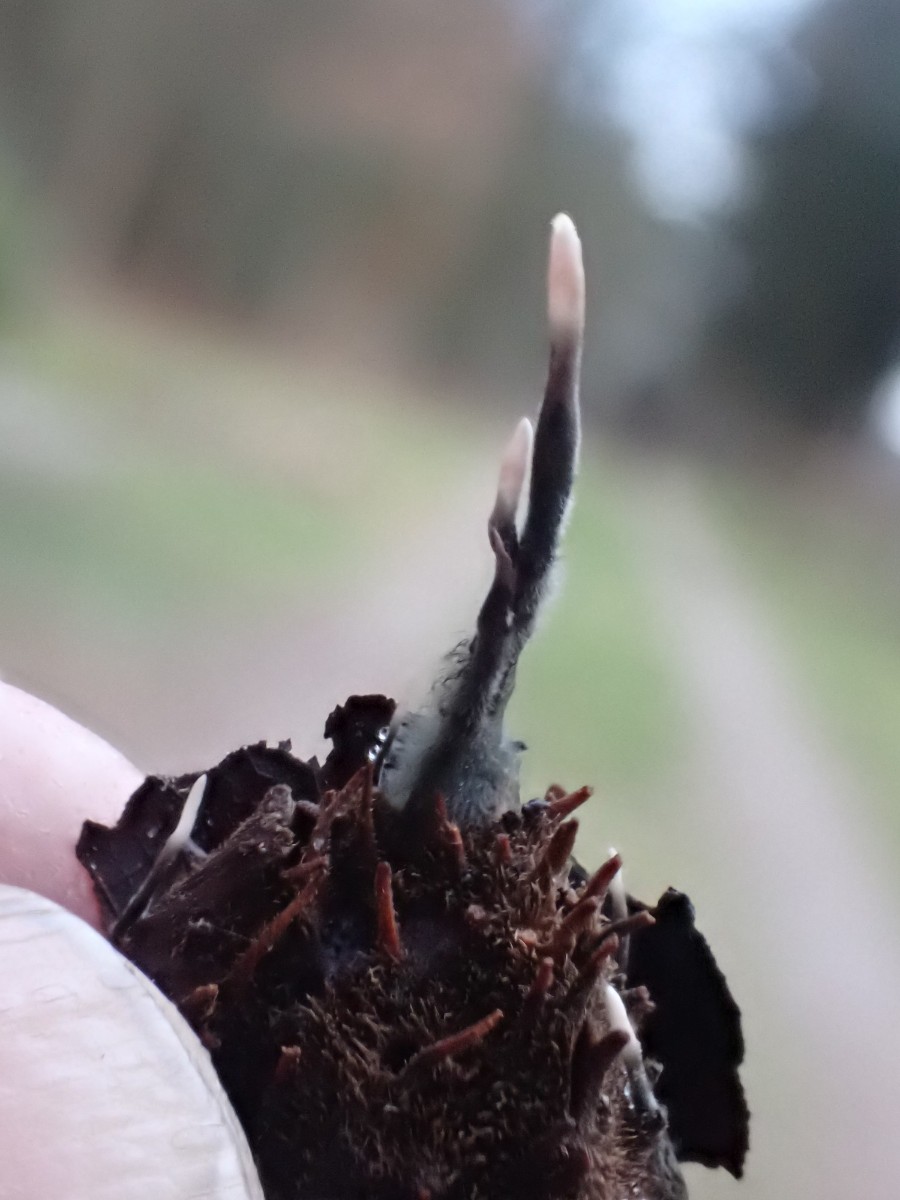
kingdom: Fungi
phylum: Ascomycota
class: Sordariomycetes
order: Xylariales
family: Xylariaceae
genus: Xylaria
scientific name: Xylaria carpophila
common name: bogskål-stødsvamp
